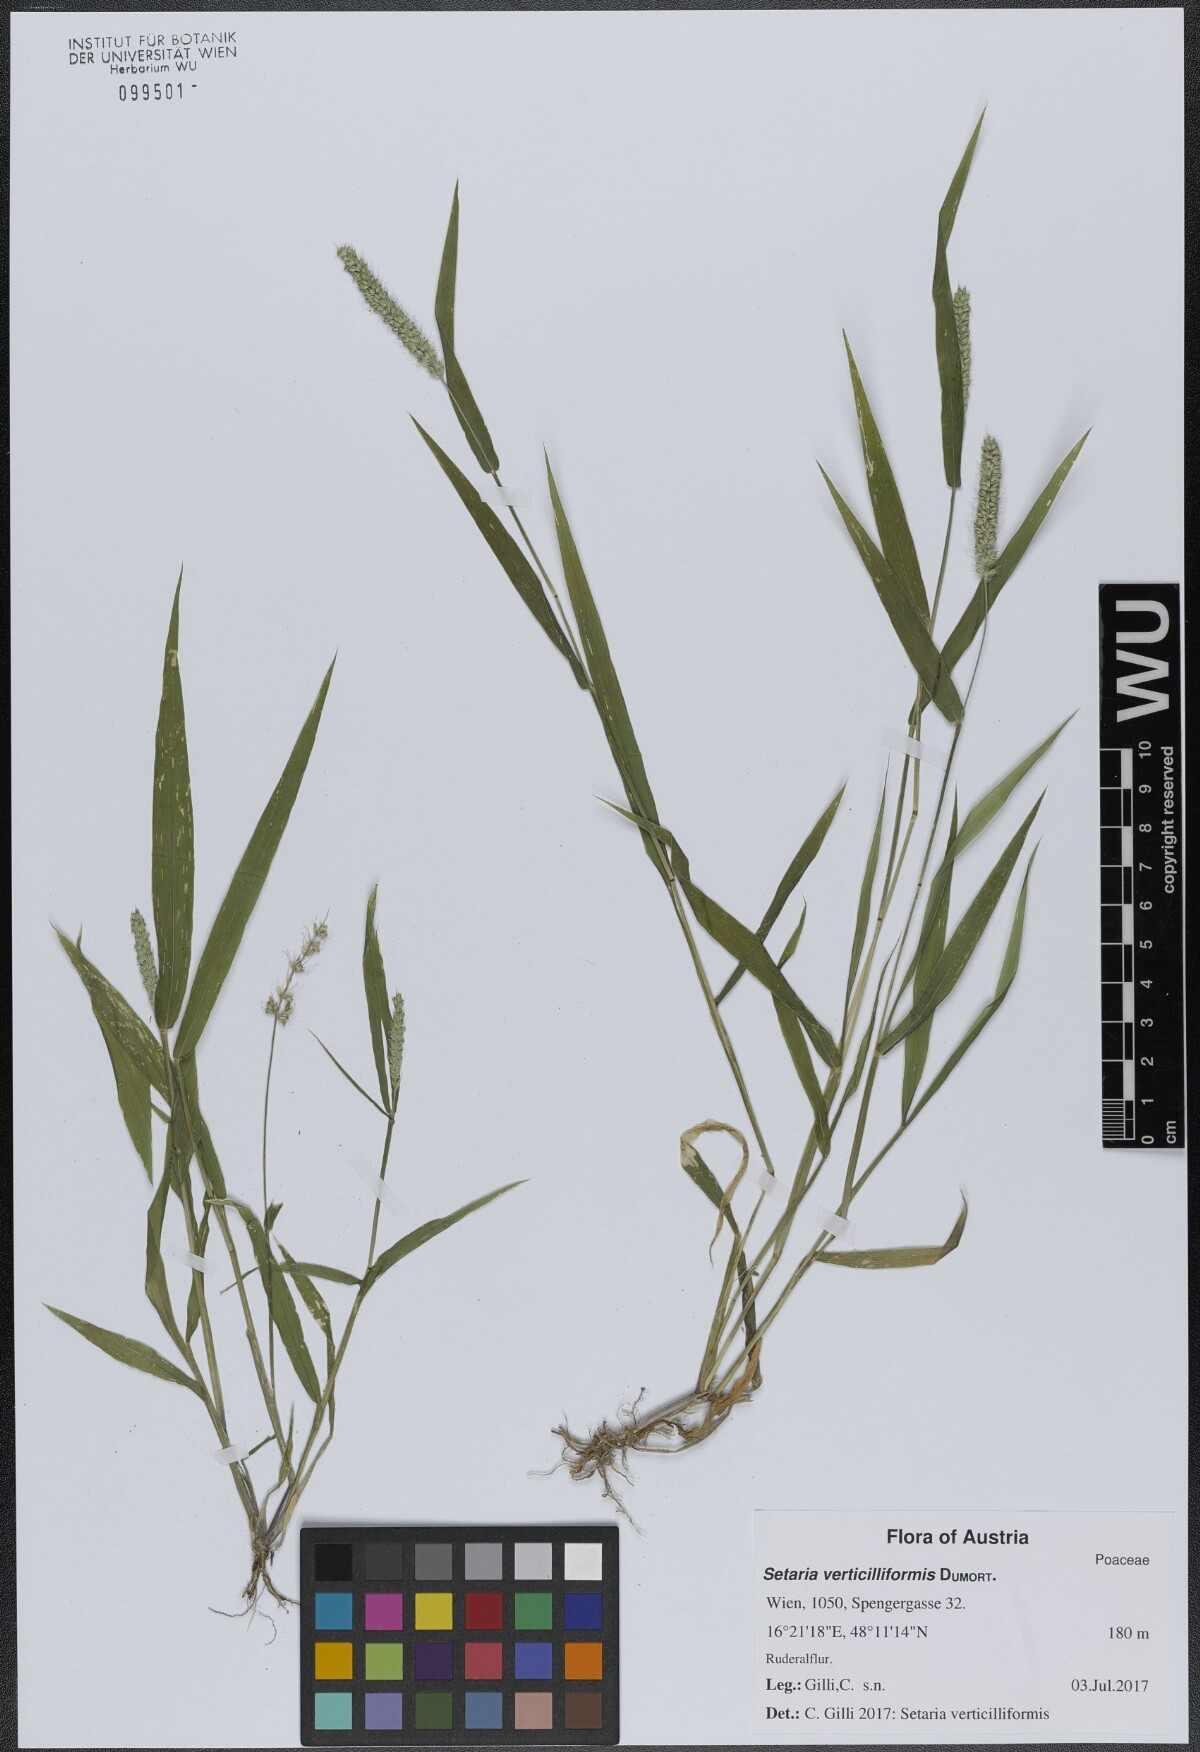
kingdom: Plantae
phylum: Tracheophyta
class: Liliopsida
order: Poales
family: Poaceae
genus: Setaria
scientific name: Setaria verticillata
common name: Hooked bristlegrass
